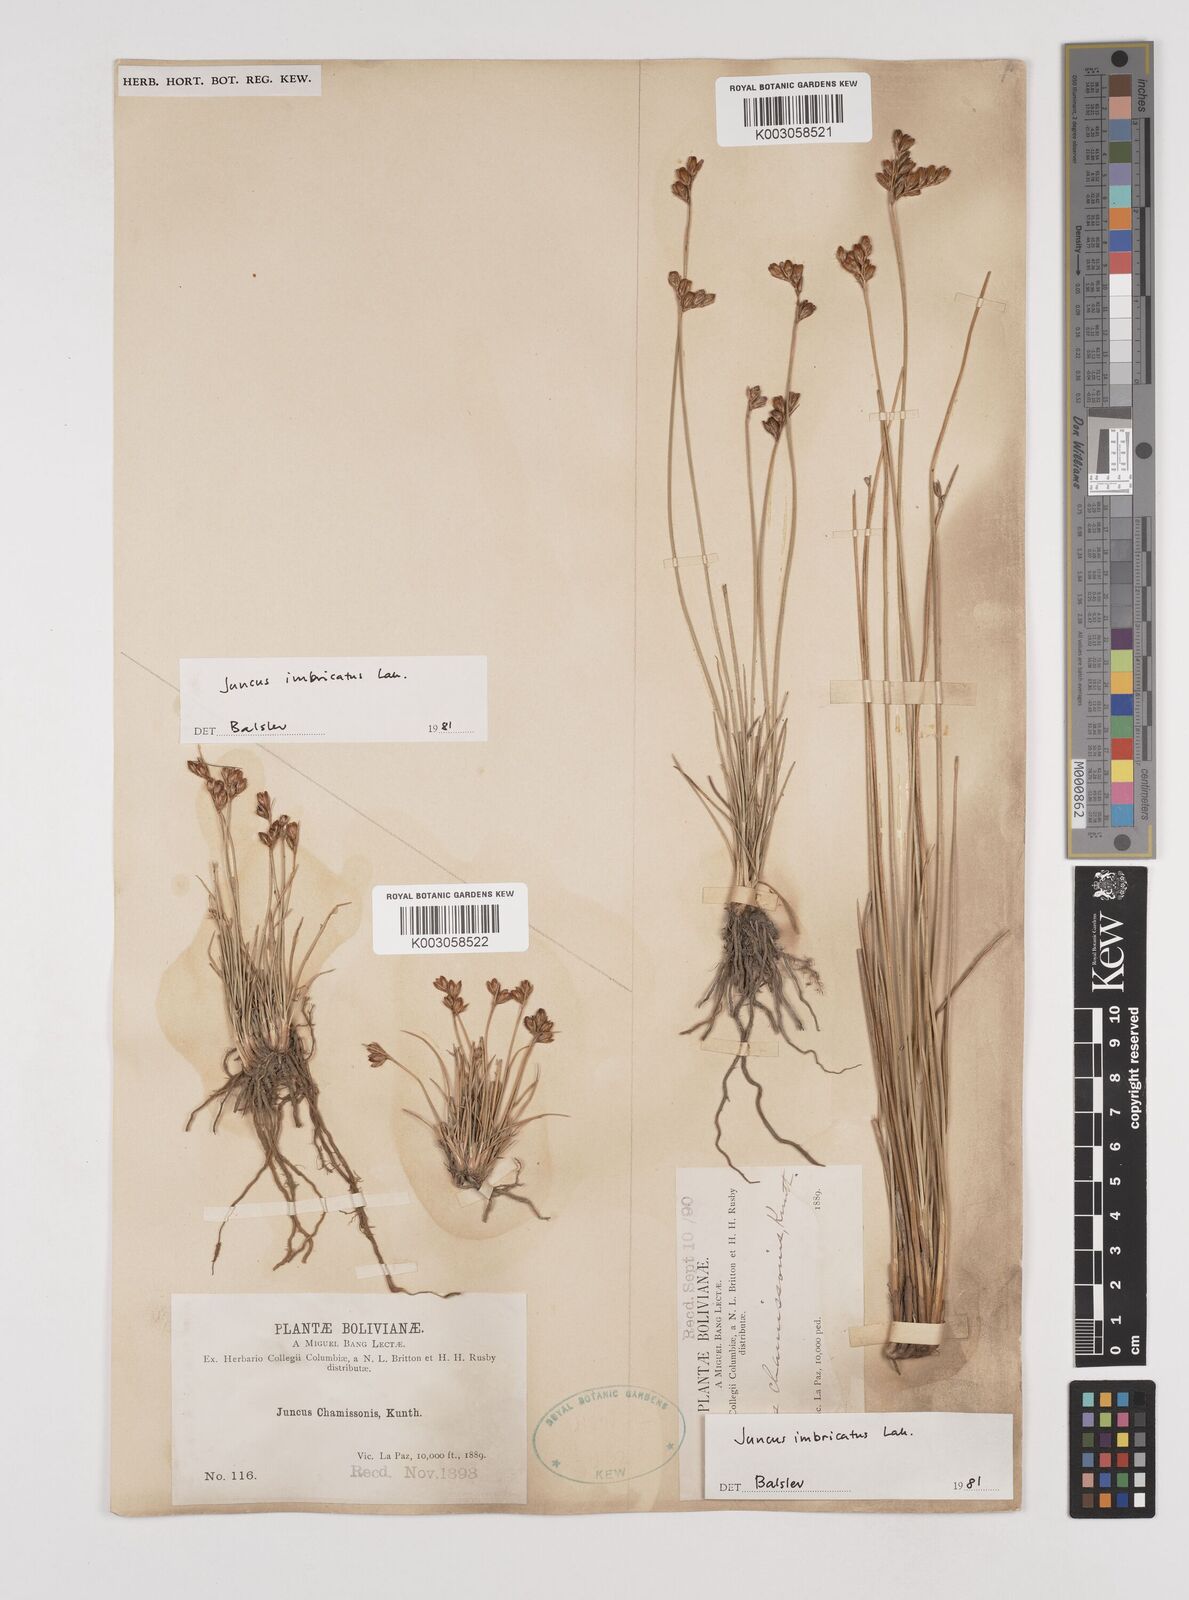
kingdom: Plantae
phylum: Tracheophyta
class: Liliopsida
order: Poales
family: Juncaceae
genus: Juncus
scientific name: Juncus imbricatus
